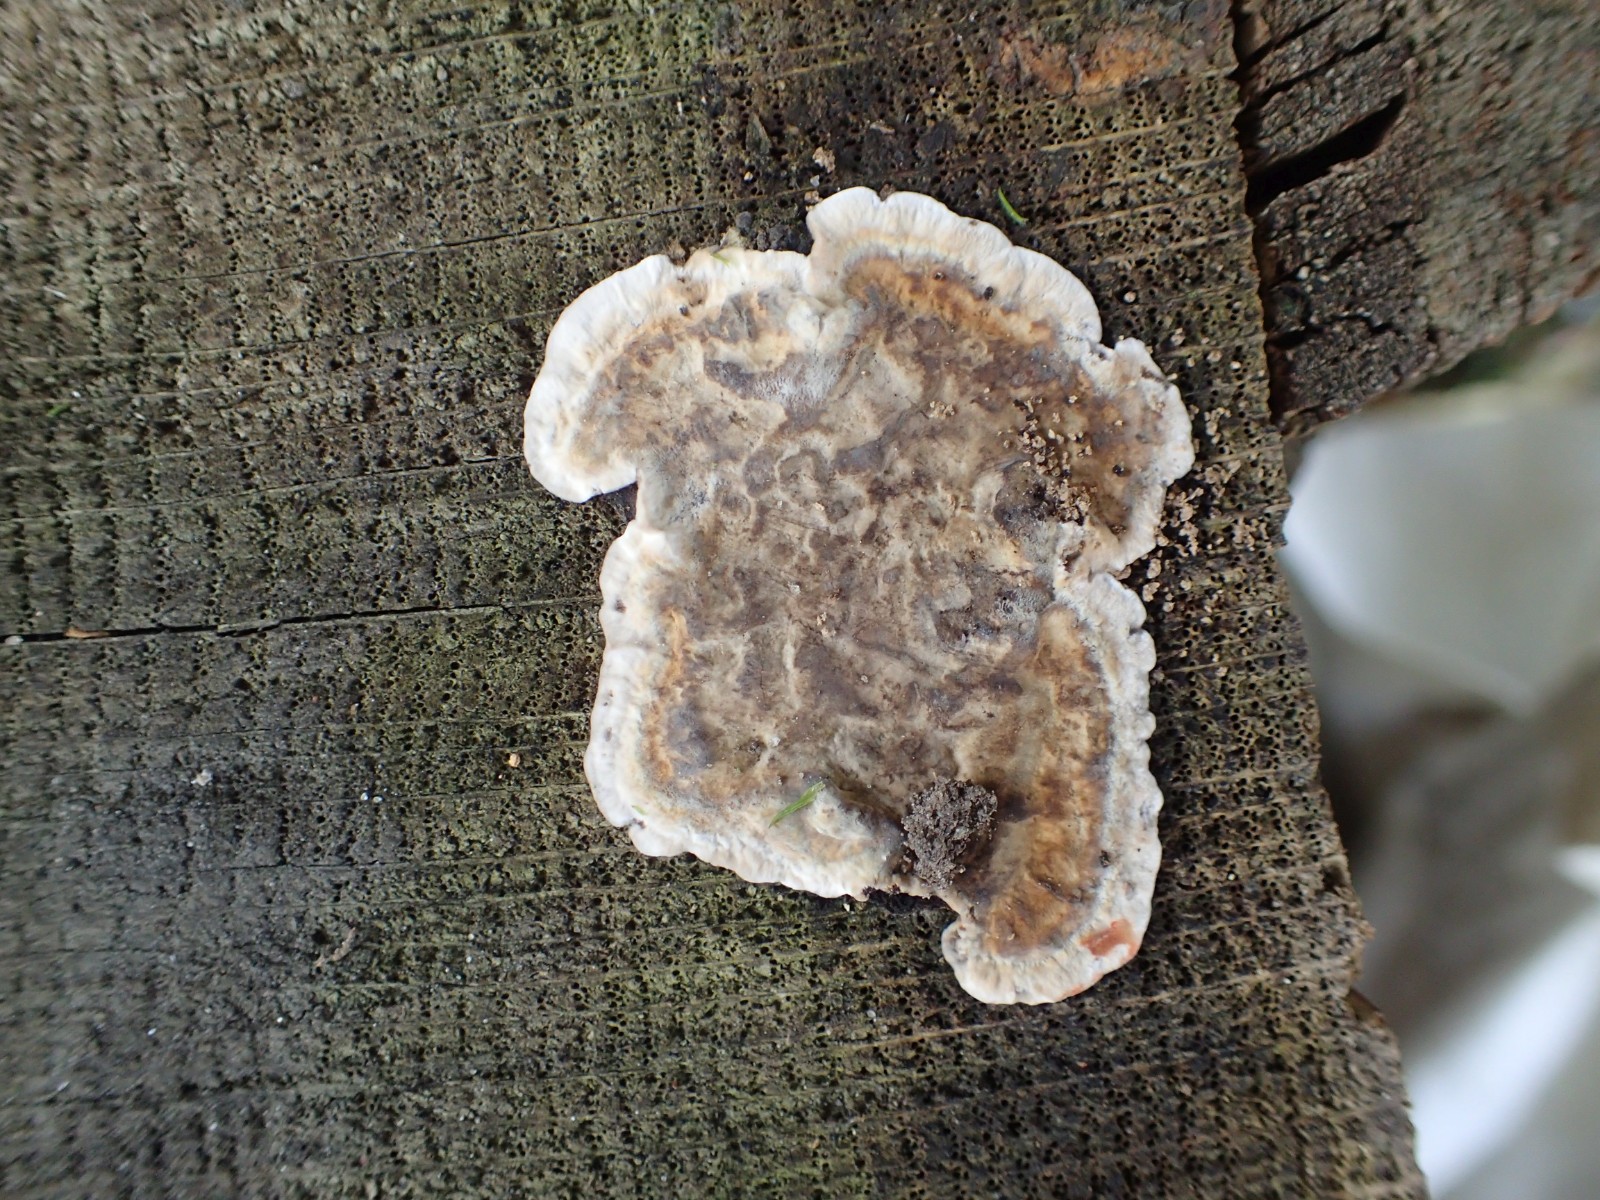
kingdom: Fungi
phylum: Basidiomycota
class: Agaricomycetes
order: Russulales
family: Stereaceae
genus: Stereum
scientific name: Stereum
